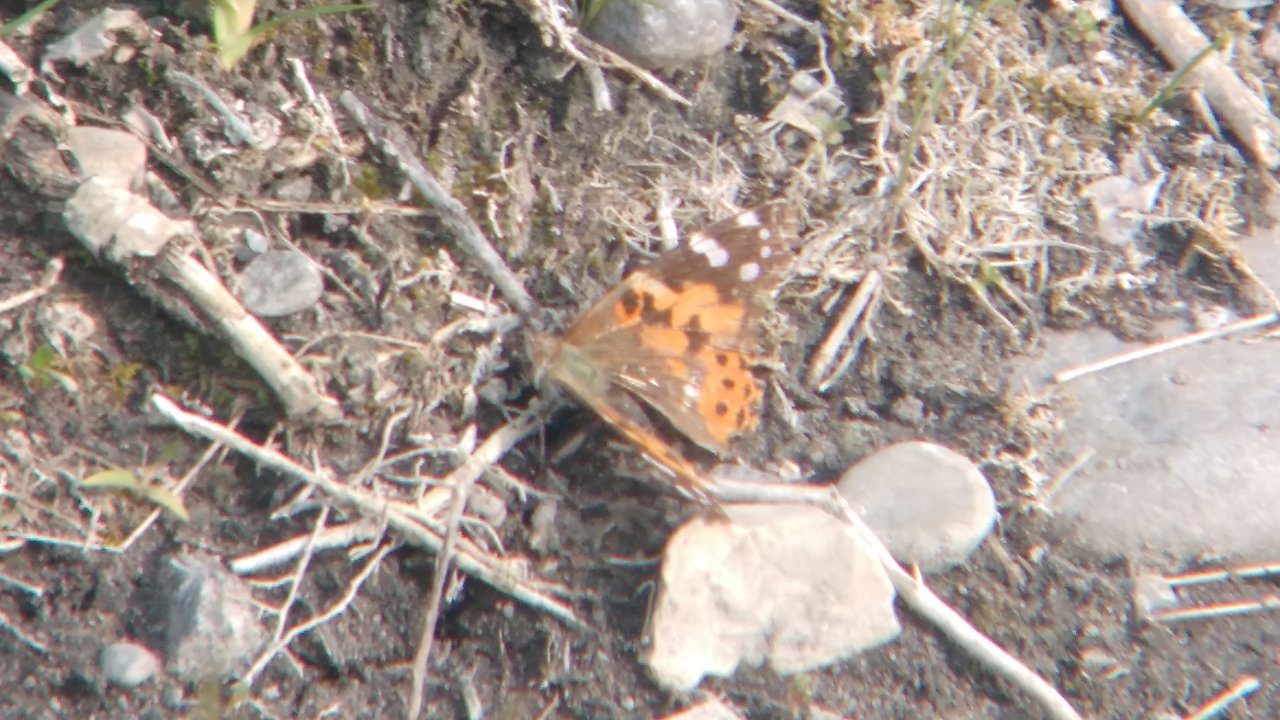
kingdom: Animalia
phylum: Arthropoda
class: Insecta
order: Lepidoptera
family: Nymphalidae
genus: Vanessa
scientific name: Vanessa cardui
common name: Painted Lady
